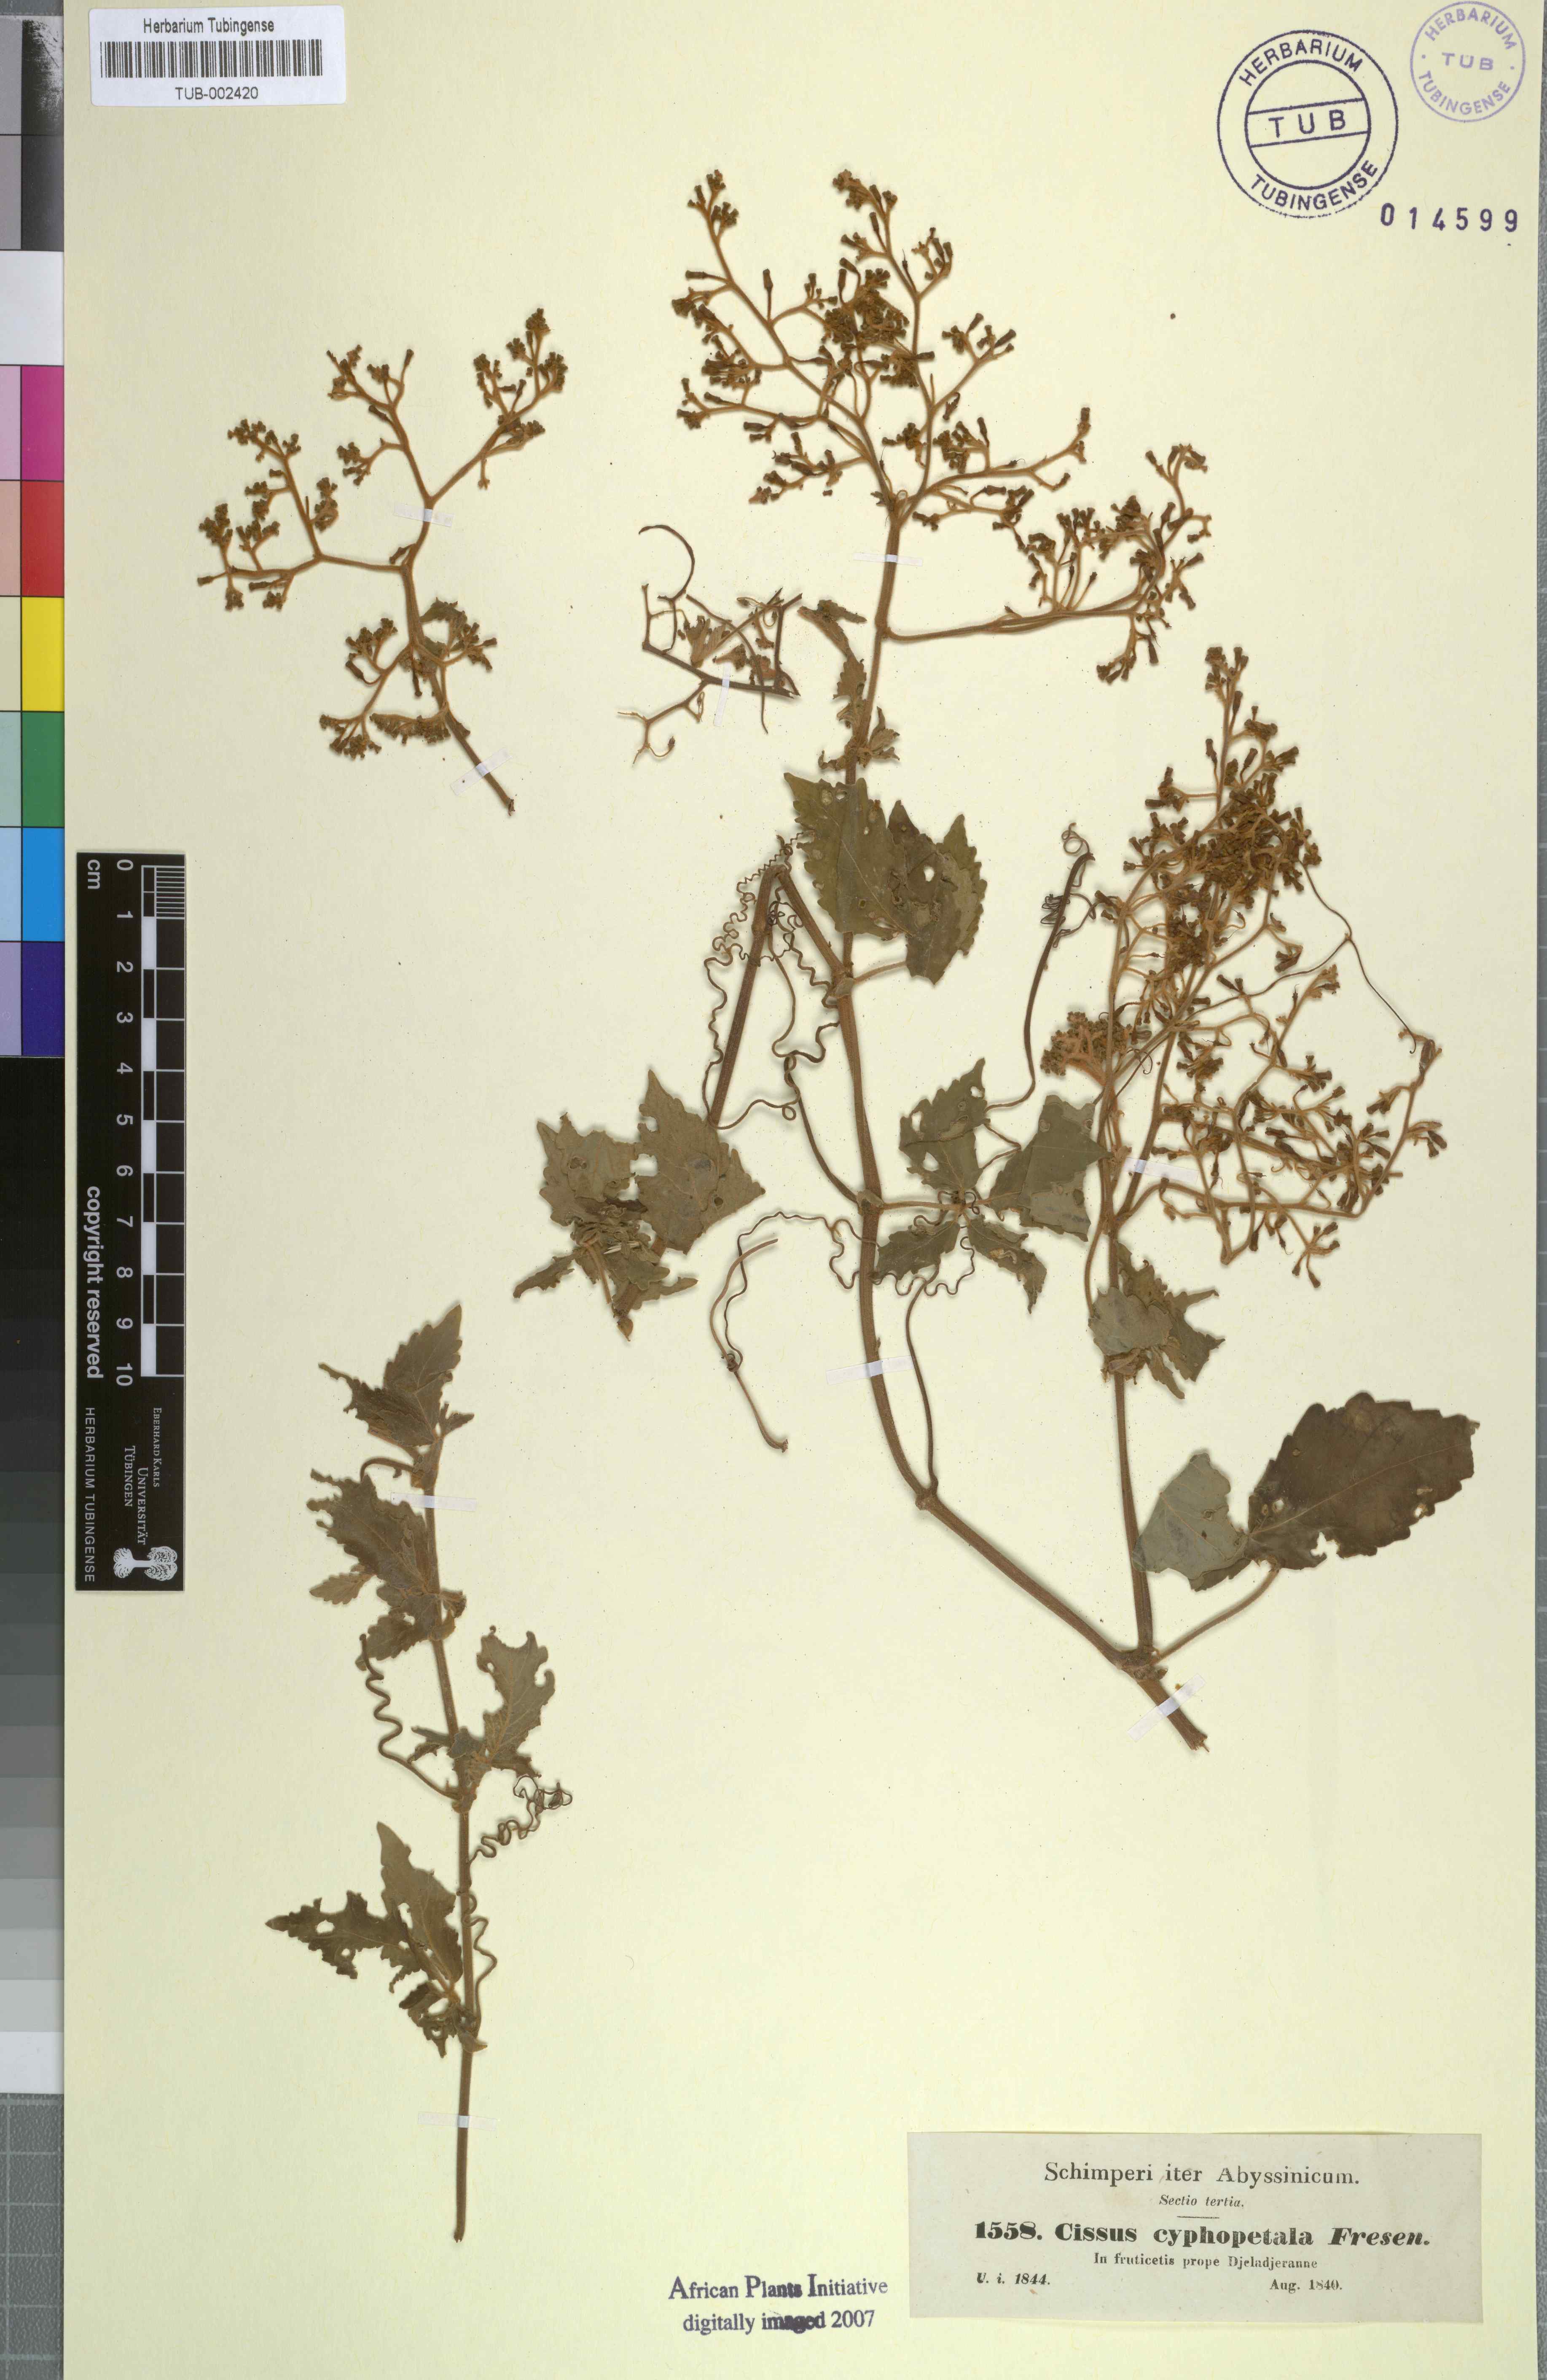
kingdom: Plantae
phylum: Tracheophyta
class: Magnoliopsida
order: Vitales
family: Vitaceae
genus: Cyphostemma
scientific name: Cyphostemma cyphopetalum
